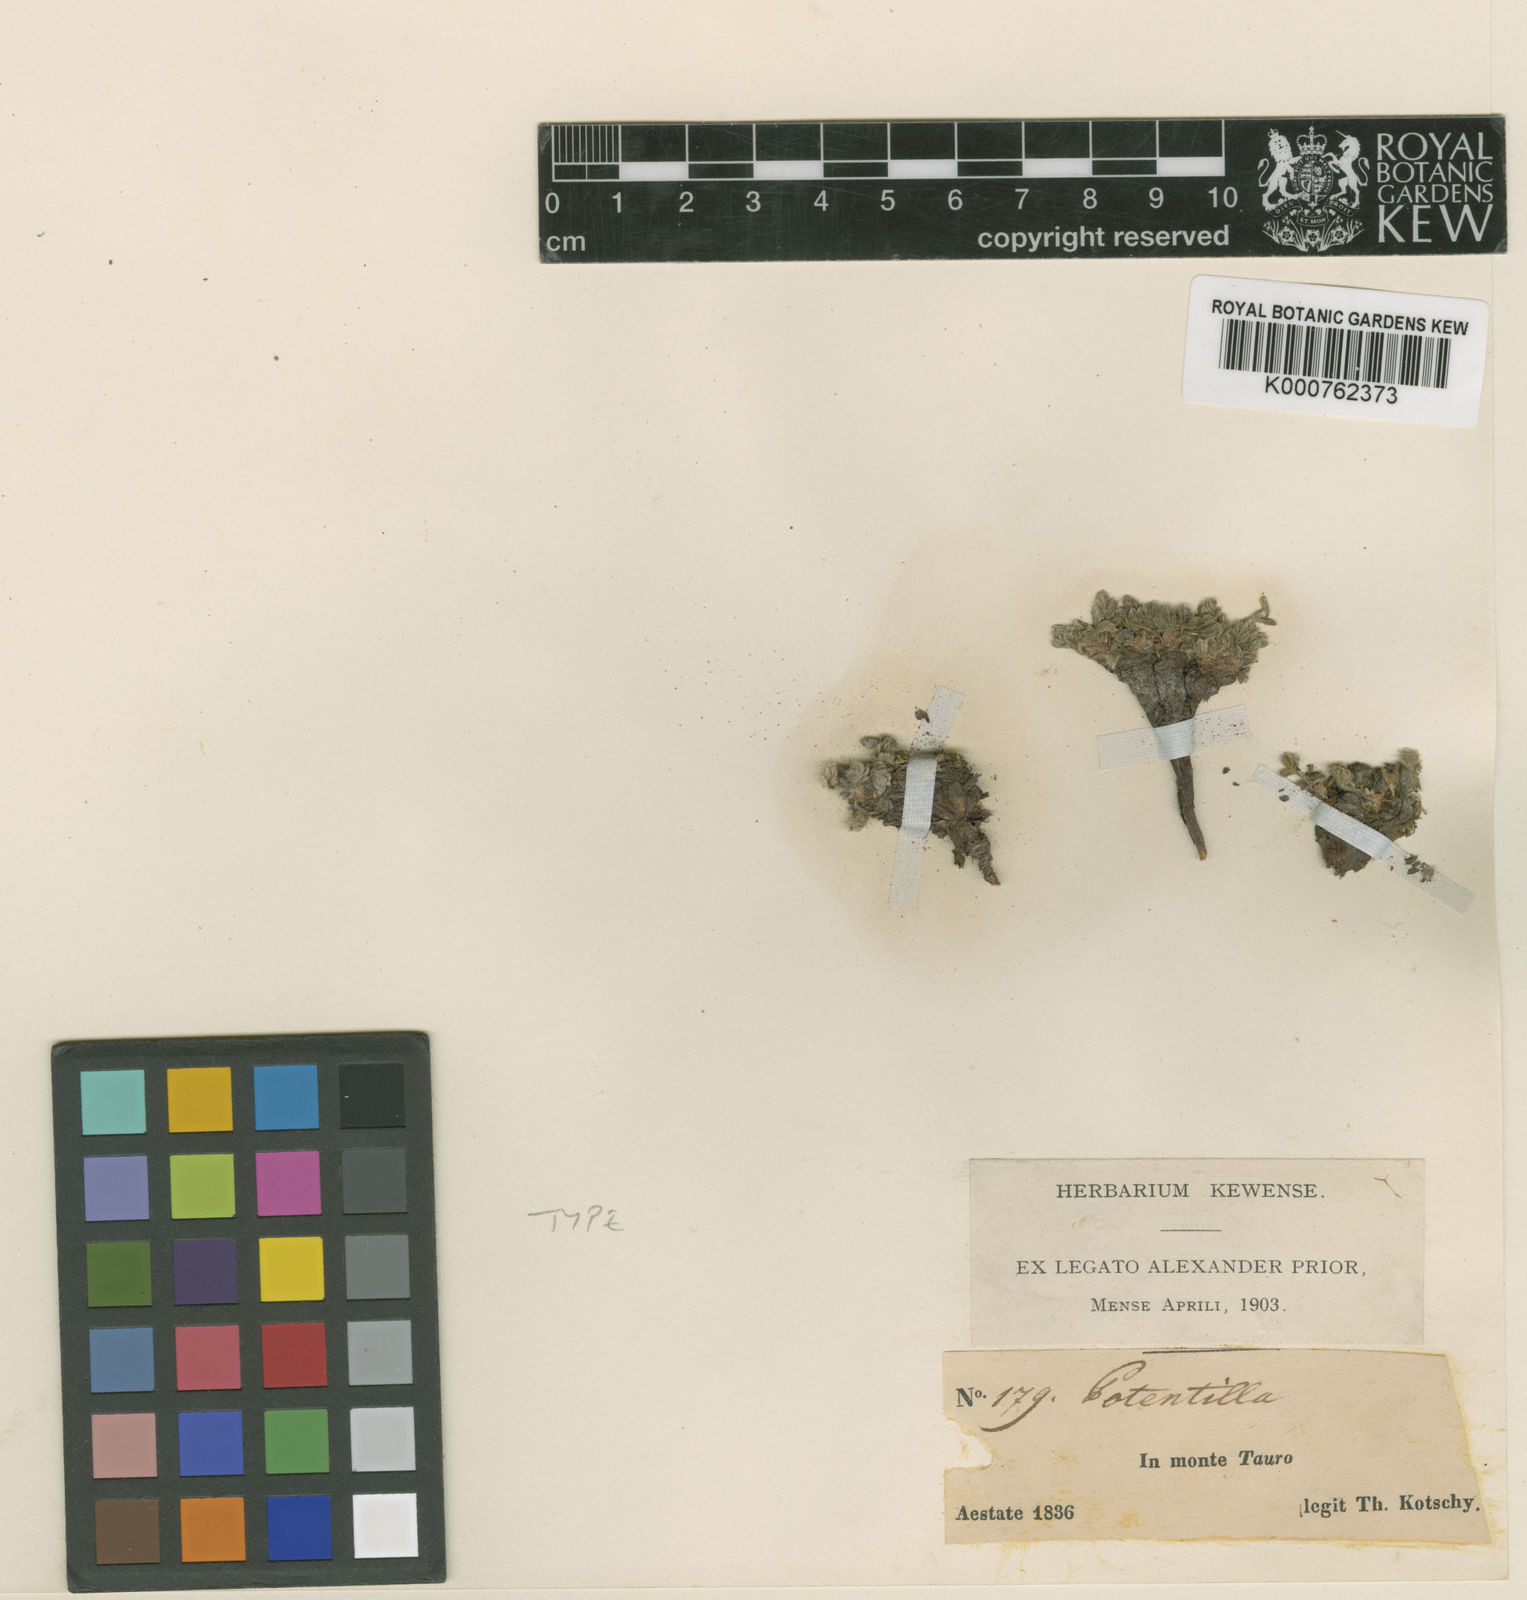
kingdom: Plantae
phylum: Tracheophyta
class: Magnoliopsida
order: Rosales
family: Rosaceae
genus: Potentilla
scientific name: Potentilla pulvinaris
